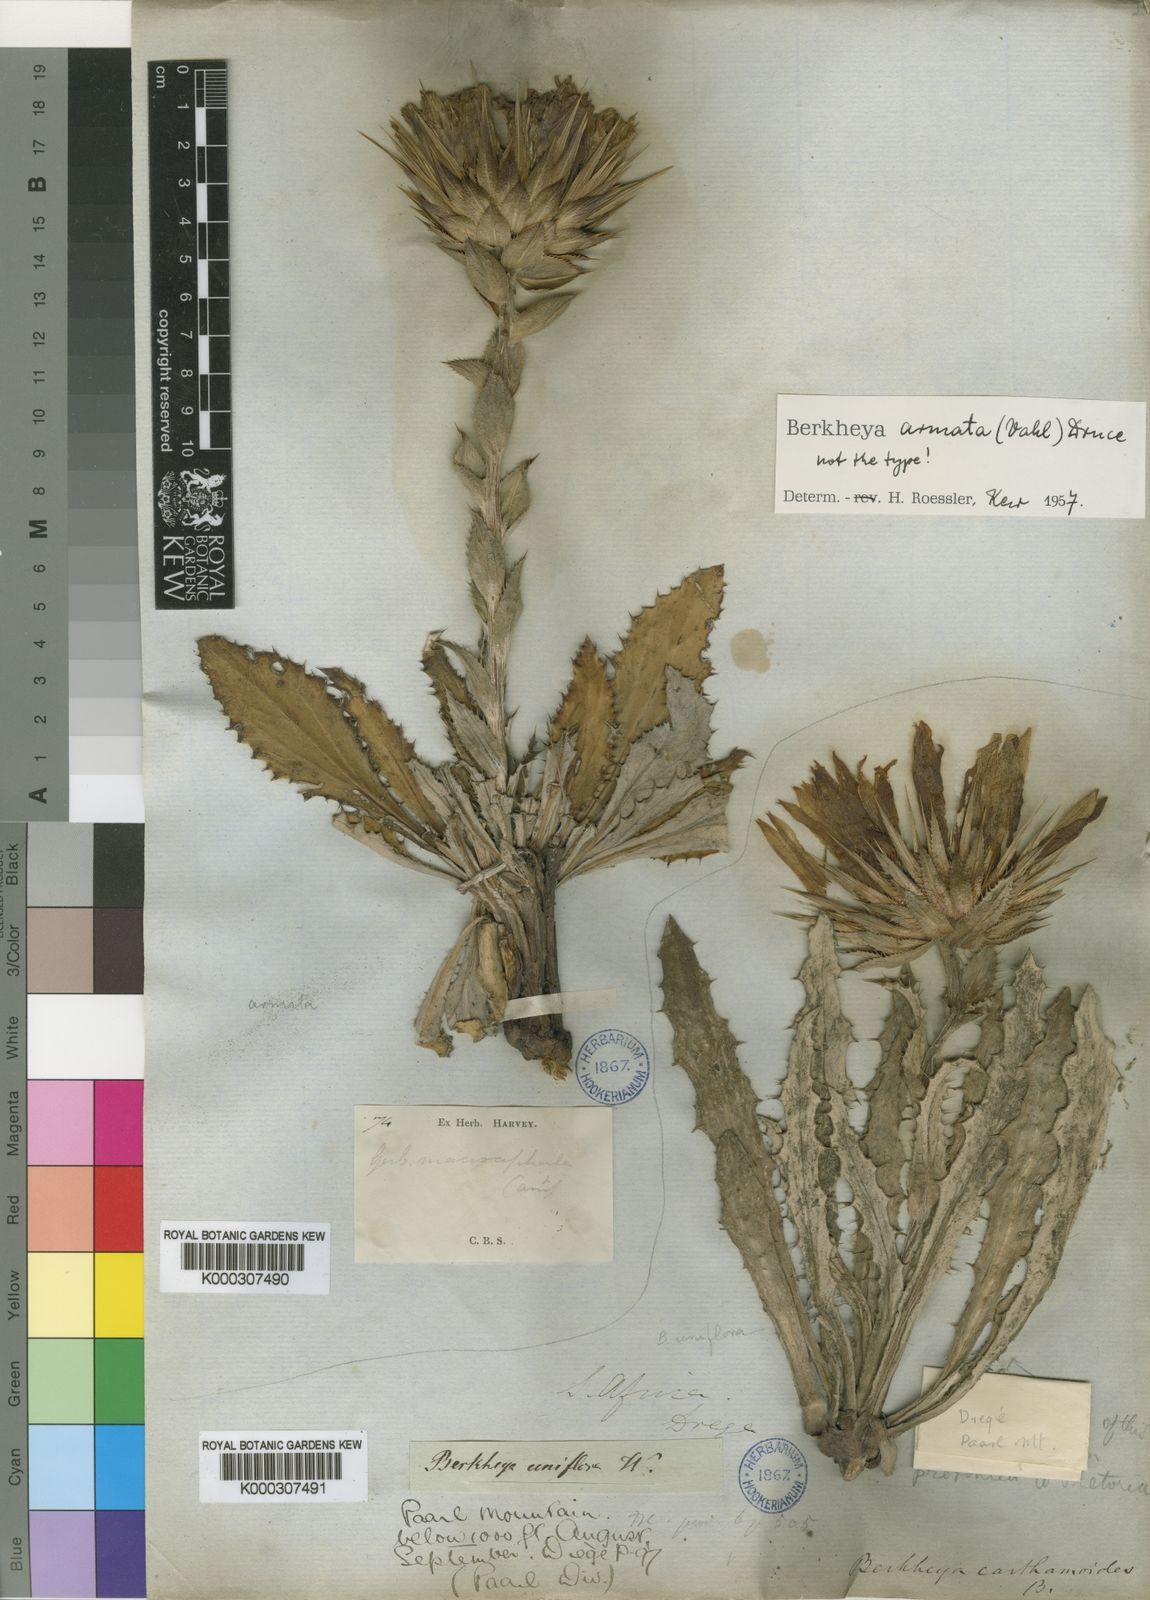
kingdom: Plantae
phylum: Tracheophyta
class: Magnoliopsida
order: Asterales
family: Asteraceae
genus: Berkheya
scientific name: Berkheya armata
